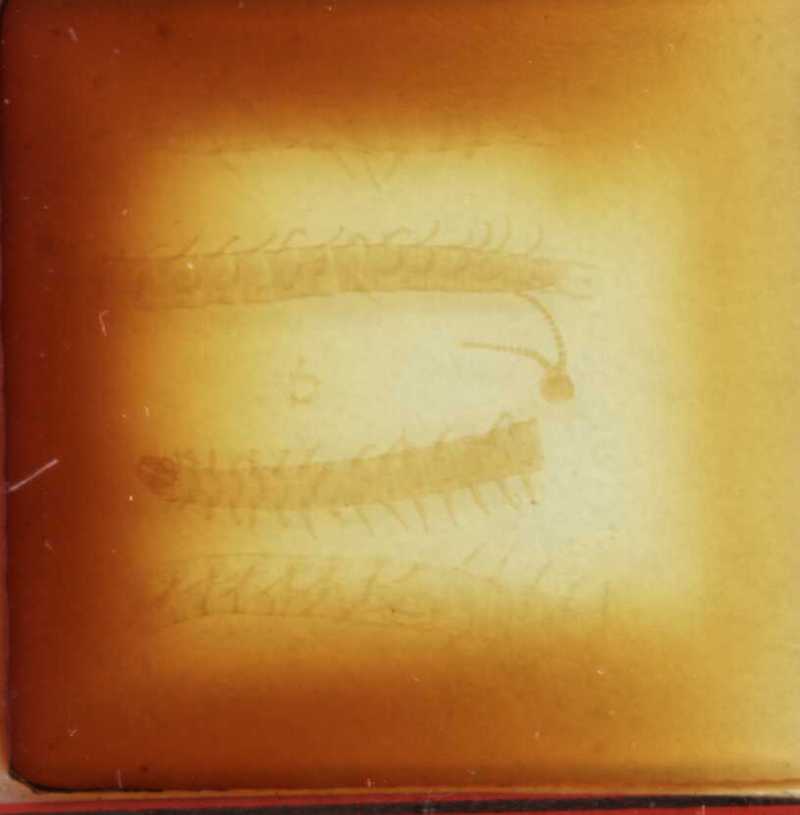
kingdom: Animalia
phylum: Arthropoda
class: Chilopoda
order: Geophilomorpha
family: Geophilidae
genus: Geoperingueyia
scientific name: Geoperingueyia dentata
